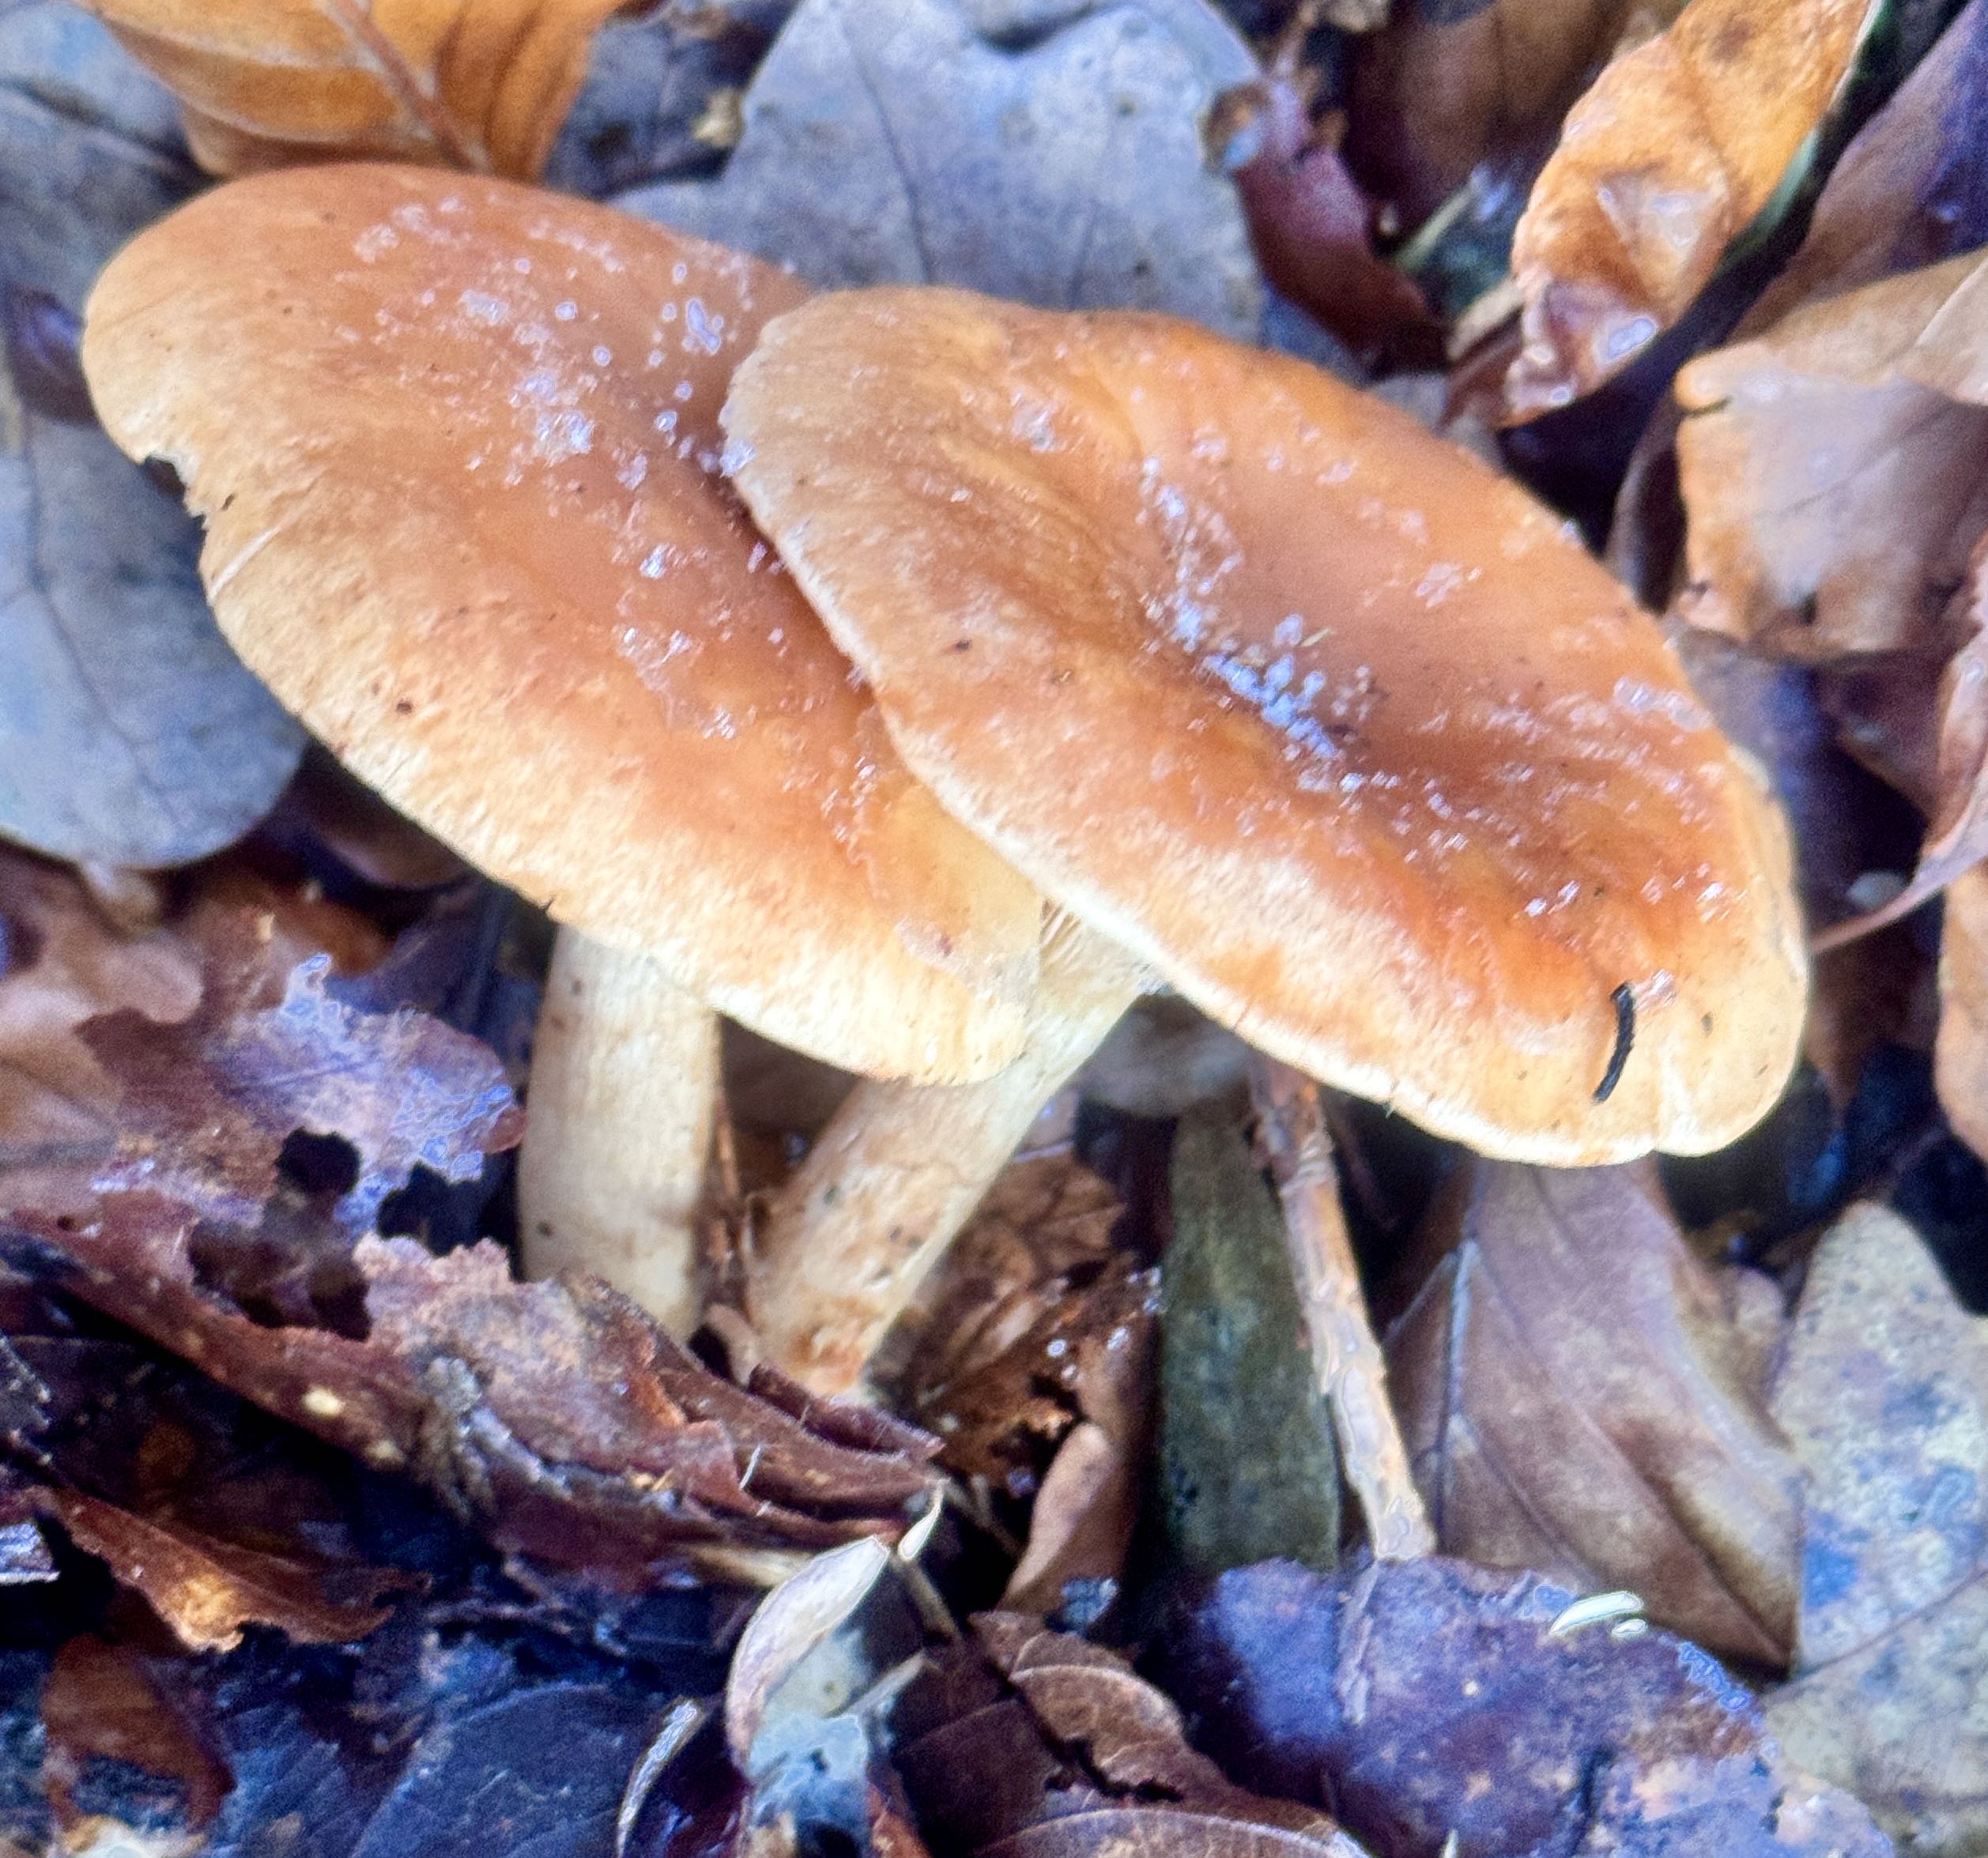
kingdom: Fungi
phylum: Basidiomycota
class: Agaricomycetes
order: Agaricales
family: Tricholomataceae
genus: Paralepista
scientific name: Paralepista flaccida
